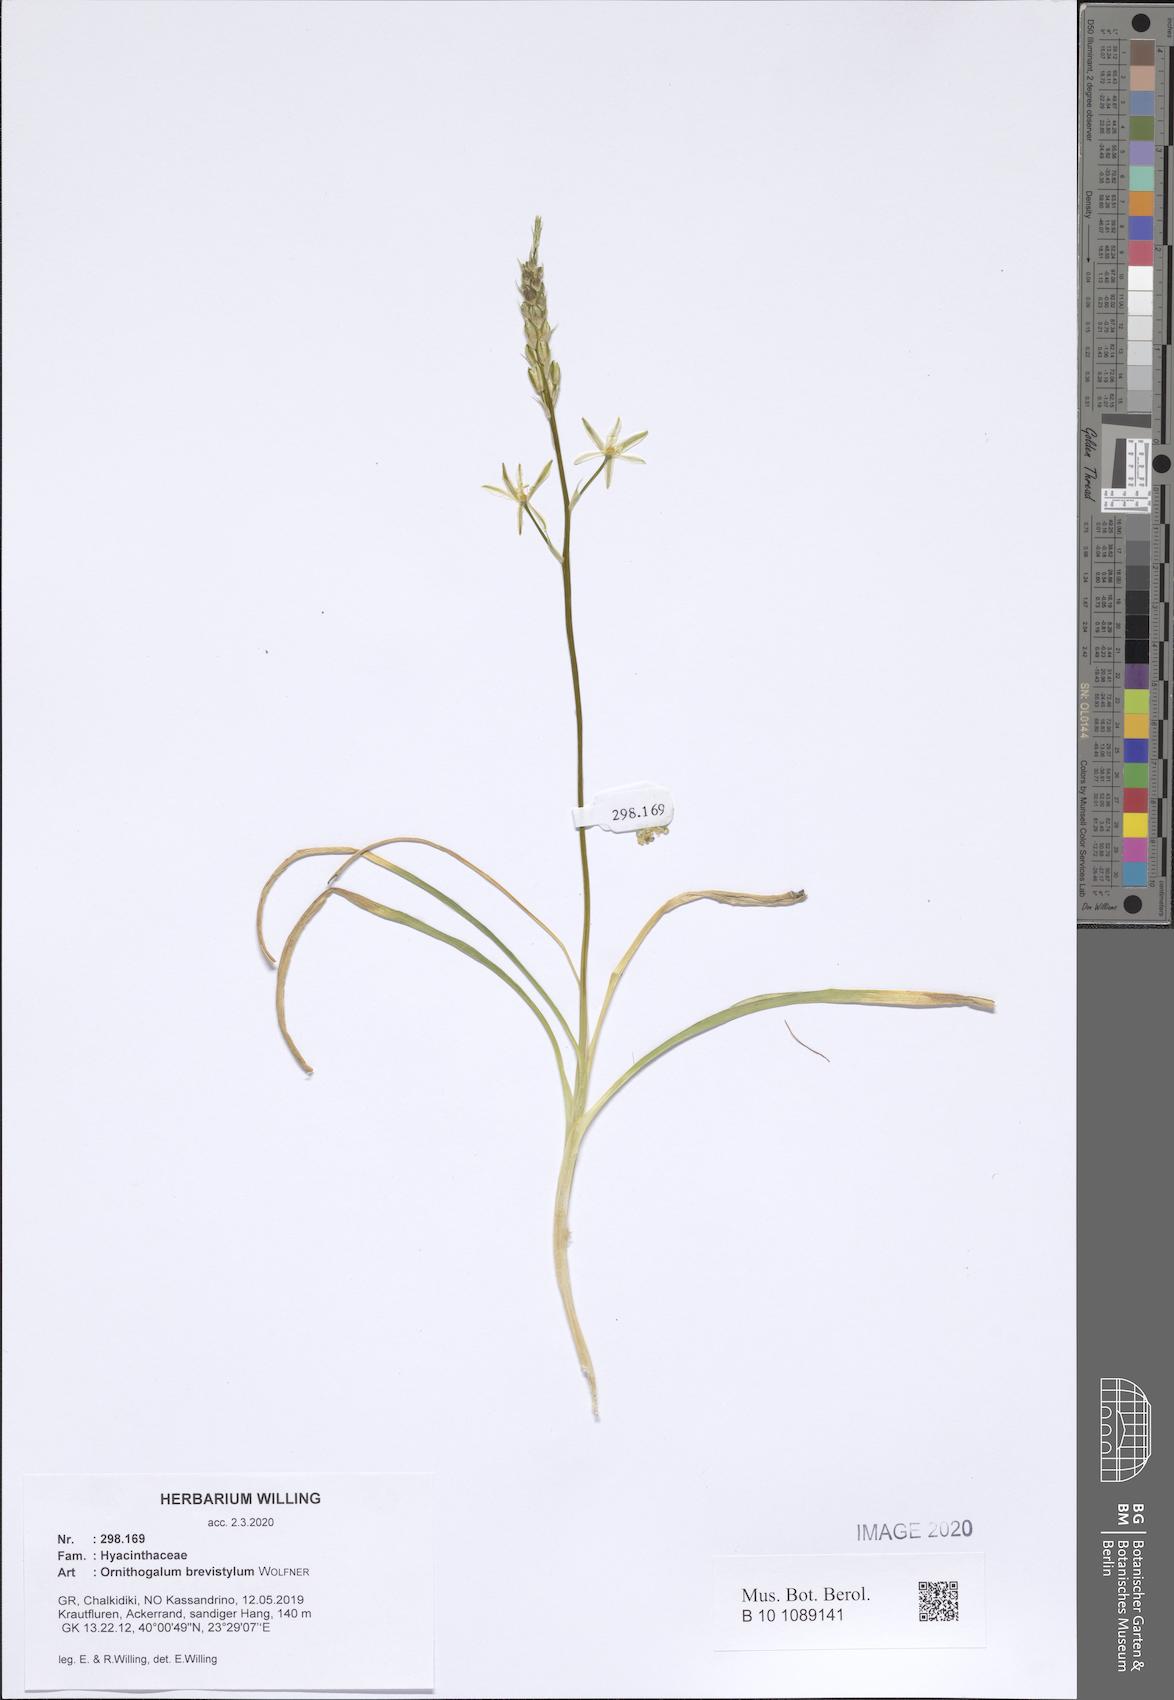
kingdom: Plantae
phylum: Tracheophyta
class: Liliopsida
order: Asparagales
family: Asparagaceae
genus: Ornithogalum
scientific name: Ornithogalum pyramidale
